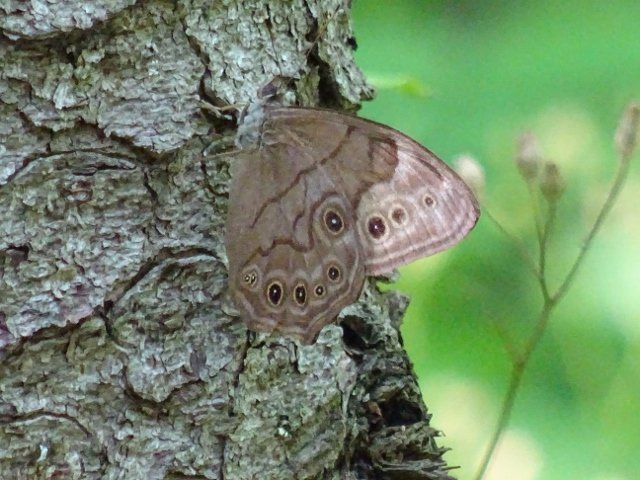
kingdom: Animalia
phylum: Arthropoda
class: Insecta
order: Lepidoptera
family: Nymphalidae
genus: Lethe
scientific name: Lethe anthedon
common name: Northern Pearly-Eye
